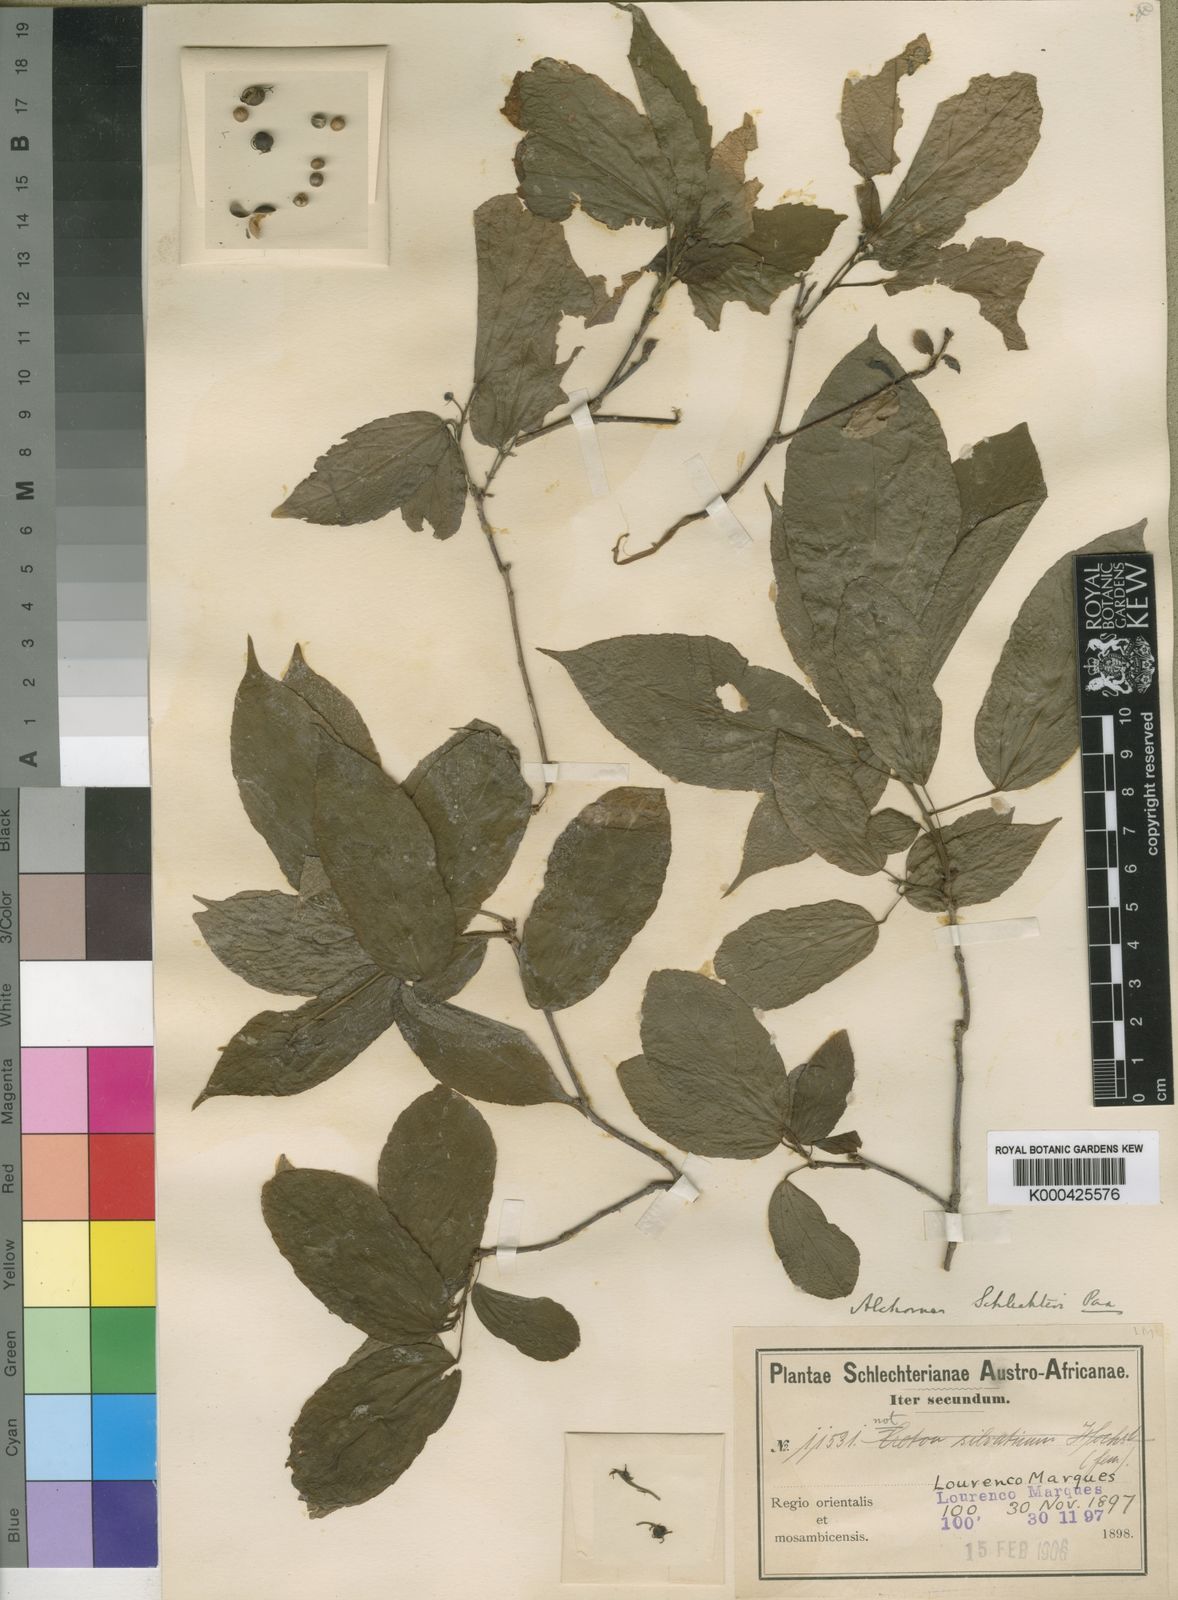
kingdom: Plantae
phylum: Tracheophyta
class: Magnoliopsida
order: Malpighiales
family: Euphorbiaceae
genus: Alchornea
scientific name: Alchornea laxiflora
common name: Lowveld bead-string
